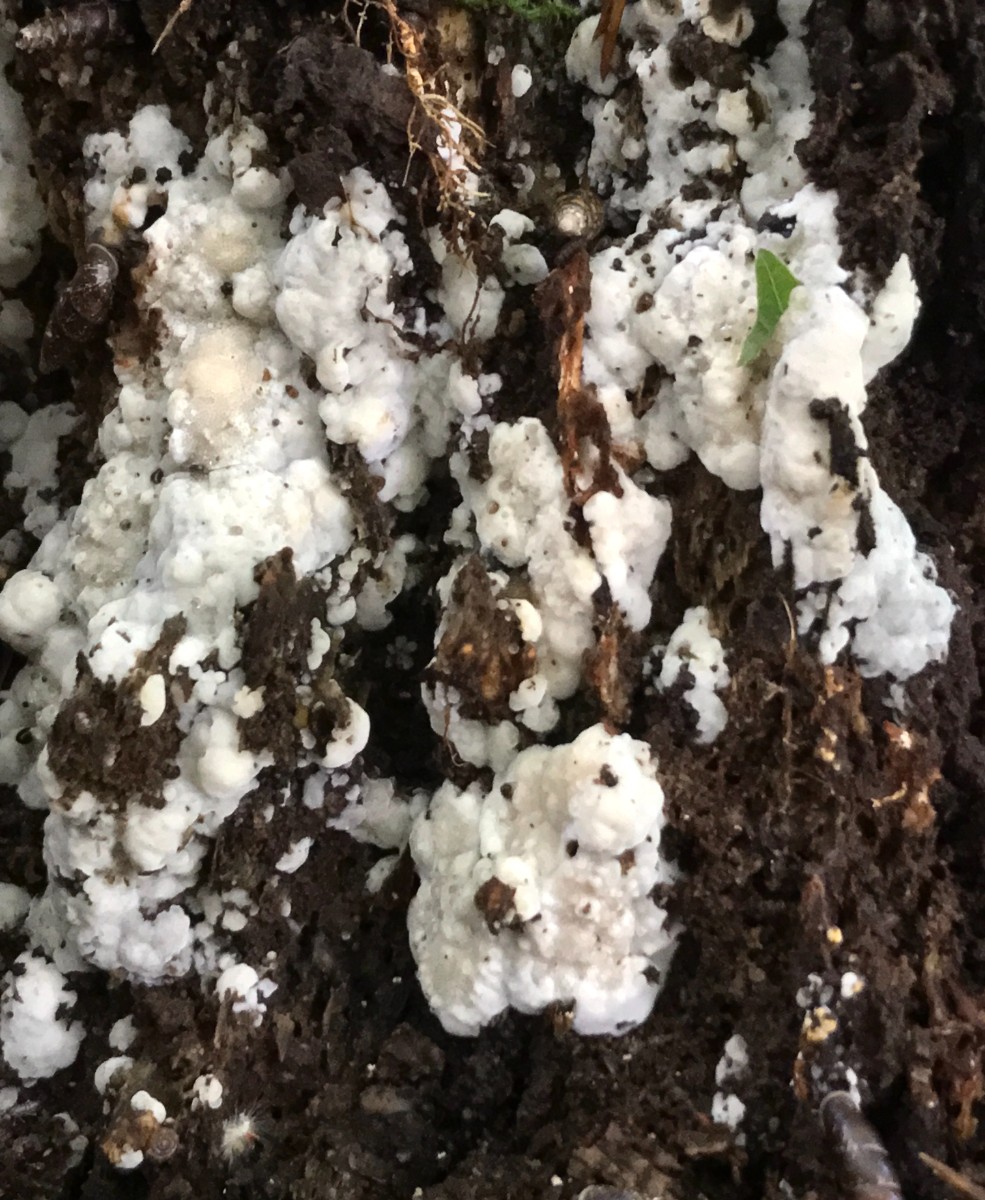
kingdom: Fungi
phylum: Basidiomycota
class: Agaricomycetes
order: Polyporales
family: Meruliaceae
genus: Physisporinus
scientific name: Physisporinus vitreus
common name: mastesvamp
